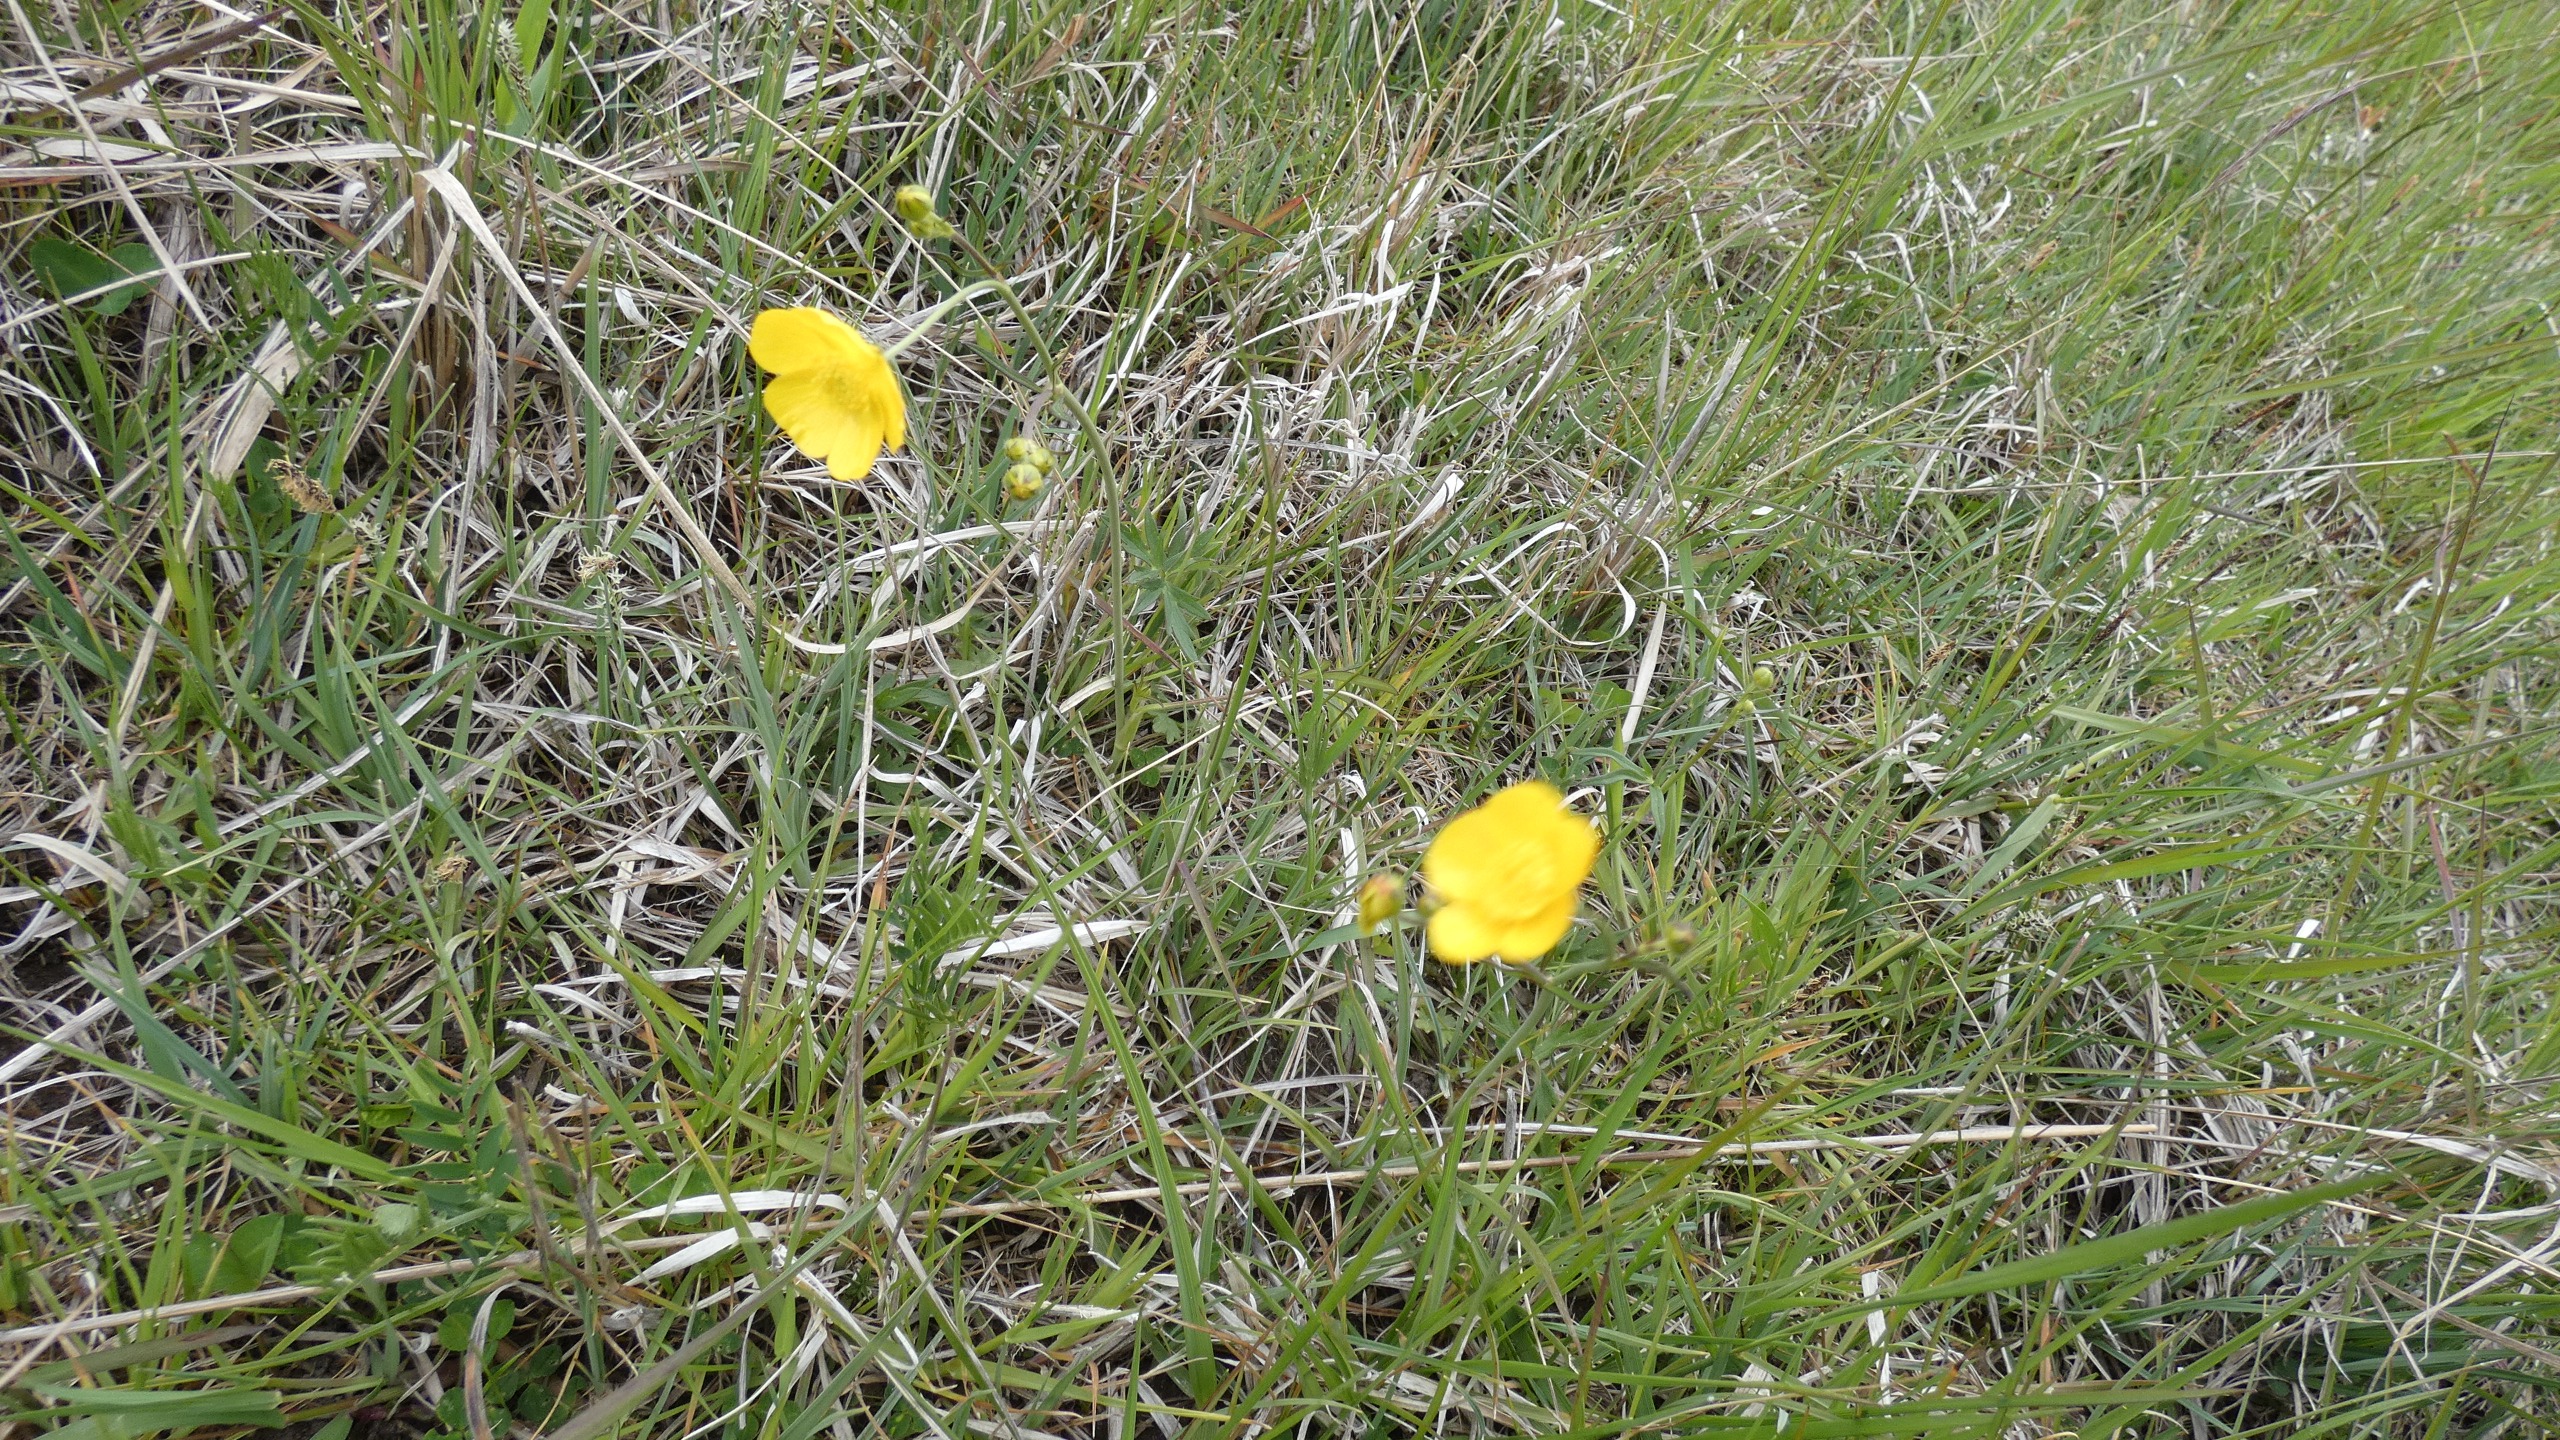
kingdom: Plantae
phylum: Tracheophyta
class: Magnoliopsida
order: Ranunculales
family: Ranunculaceae
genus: Ranunculus
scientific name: Ranunculus acris
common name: Bidende ranunkel
